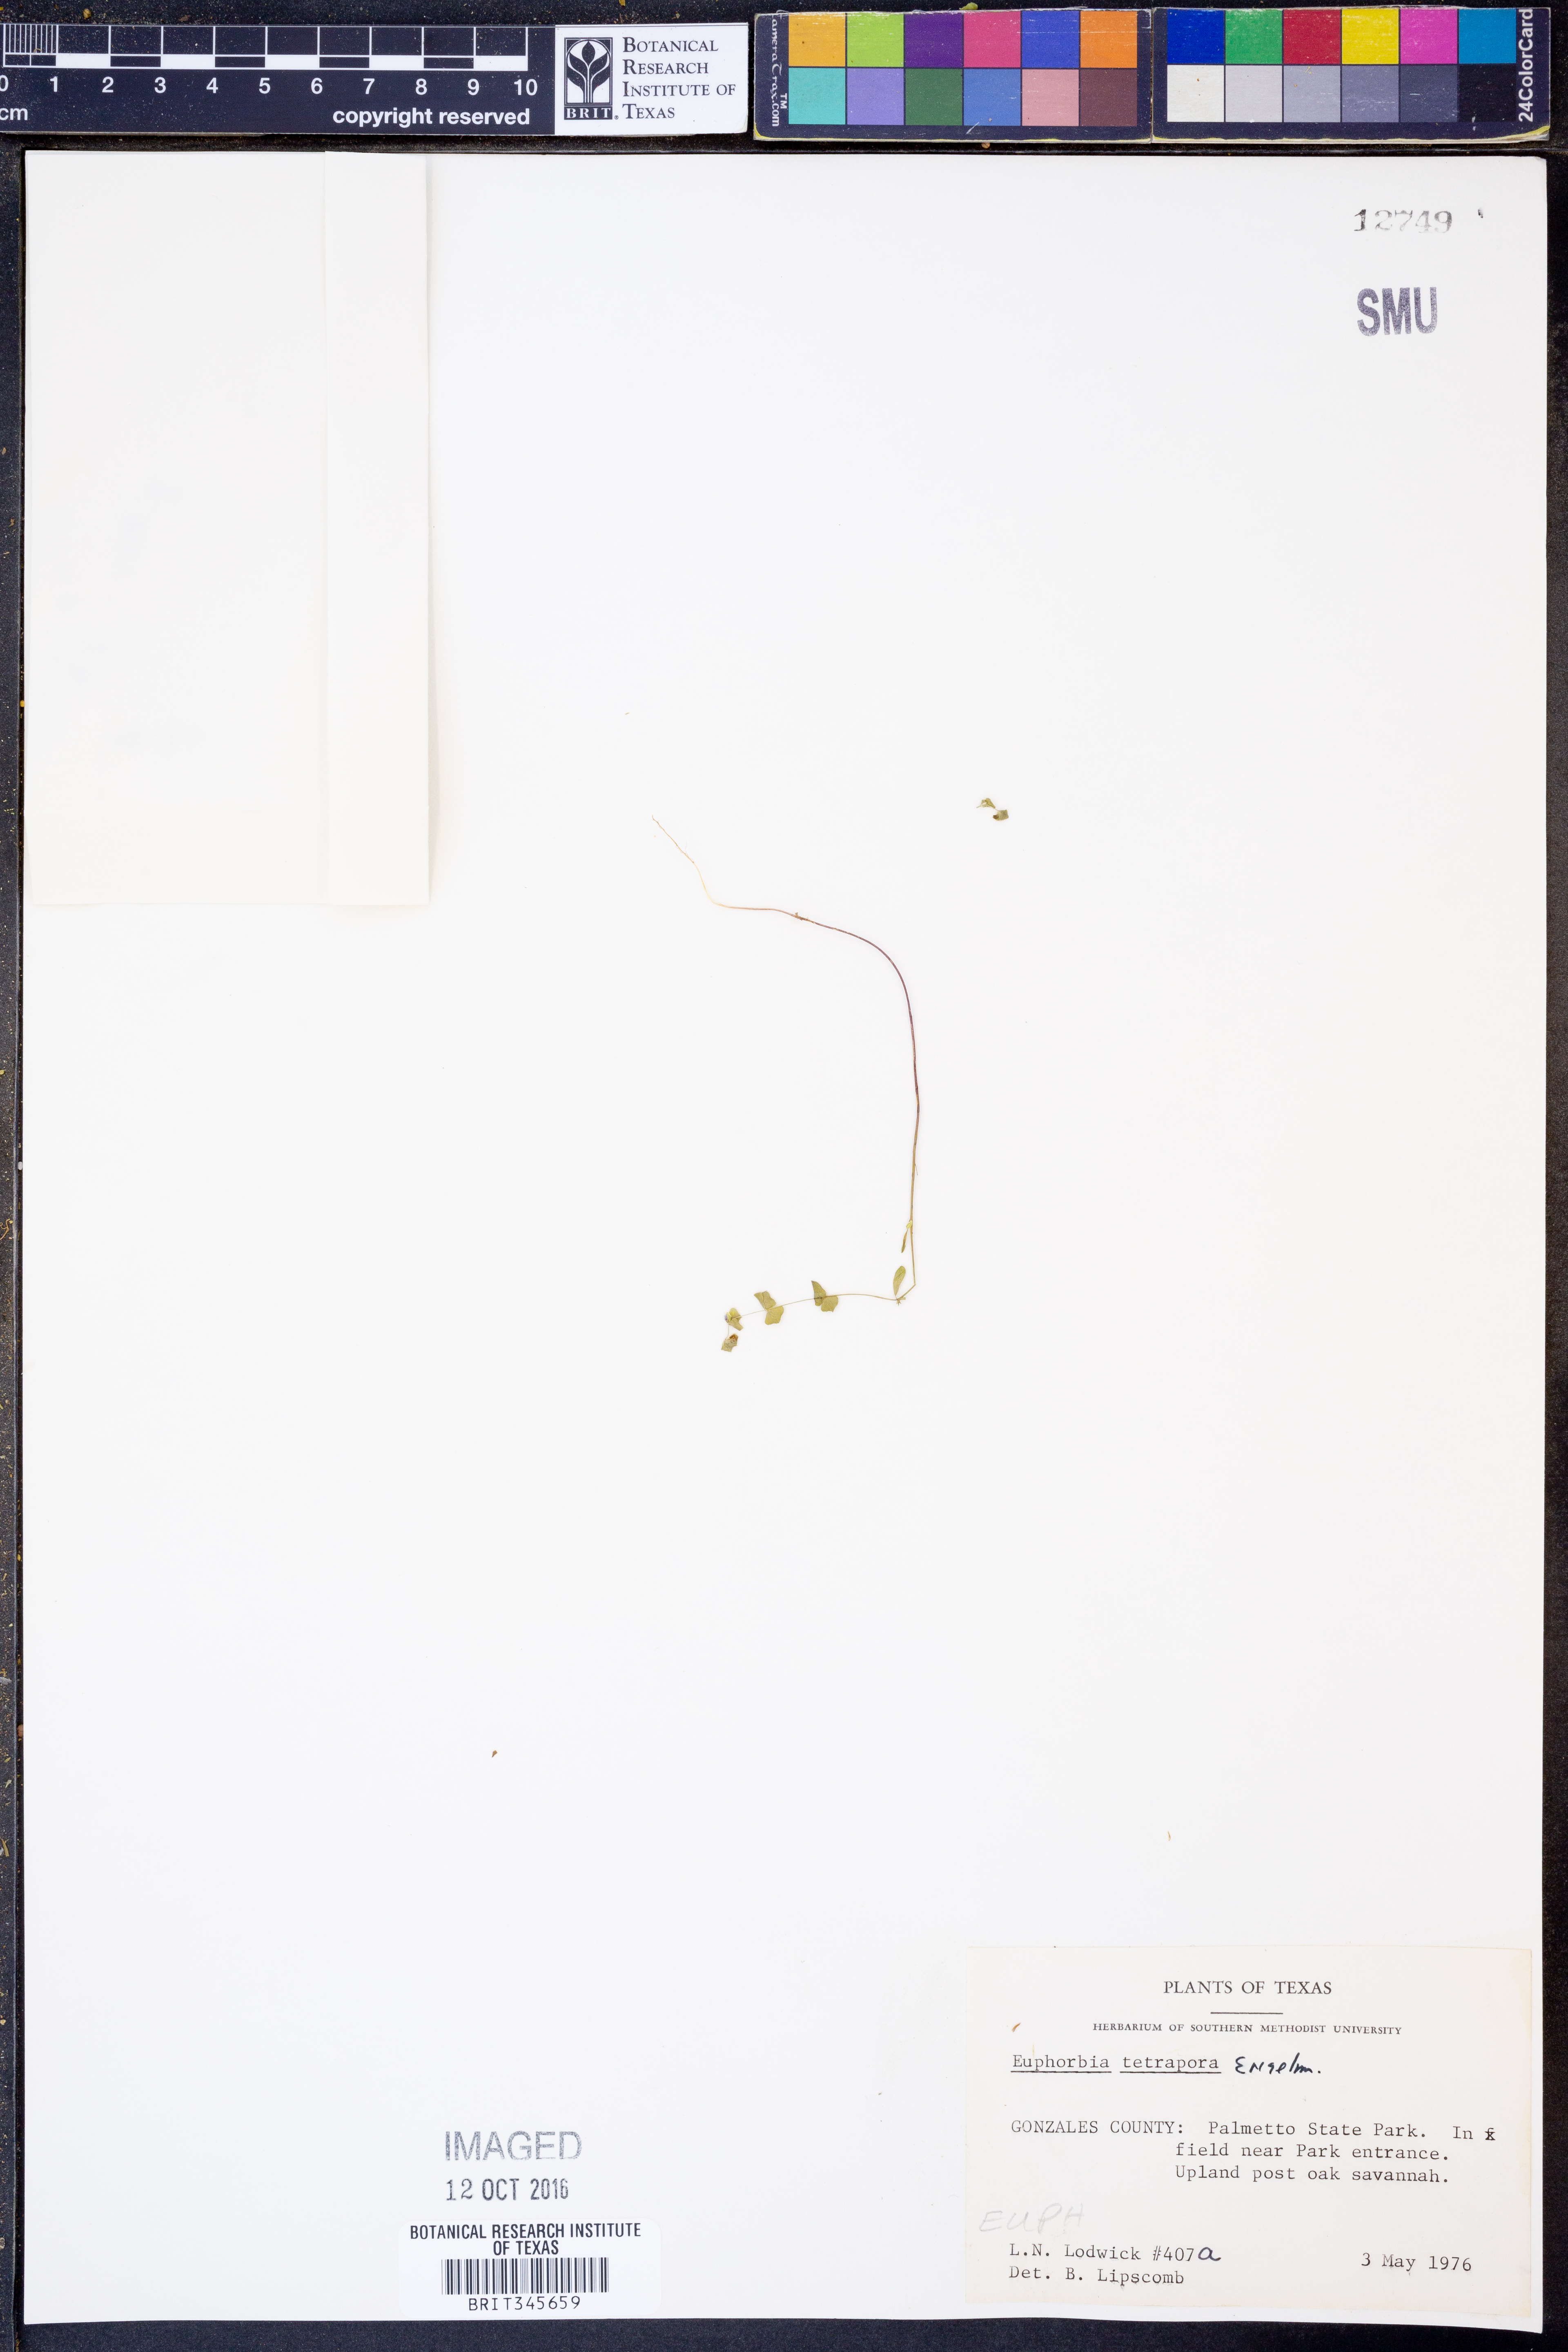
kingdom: Plantae
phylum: Tracheophyta
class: Magnoliopsida
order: Malpighiales
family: Euphorbiaceae
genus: Euphorbia
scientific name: Euphorbia tetrapora
